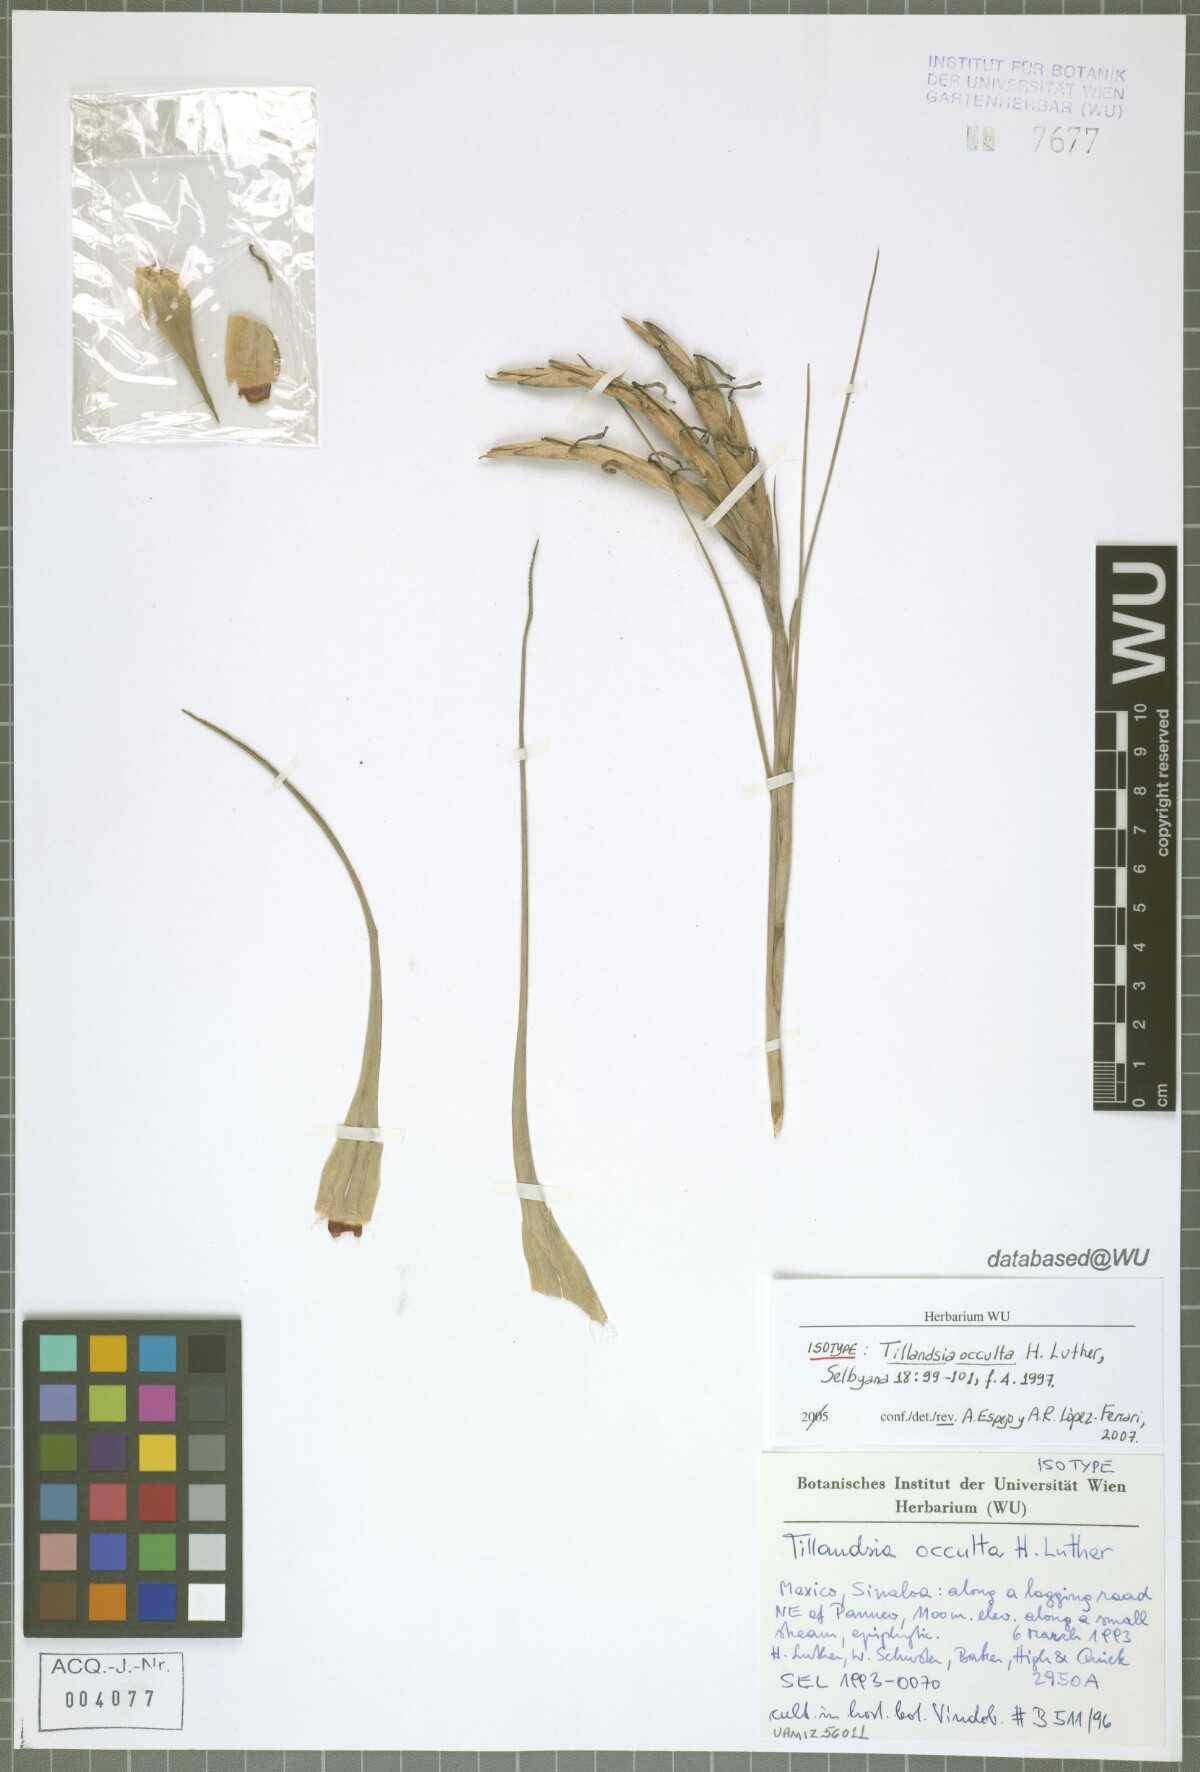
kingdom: Plantae
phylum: Tracheophyta
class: Liliopsida
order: Poales
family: Bromeliaceae
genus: Tillandsia
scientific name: Tillandsia occulta
